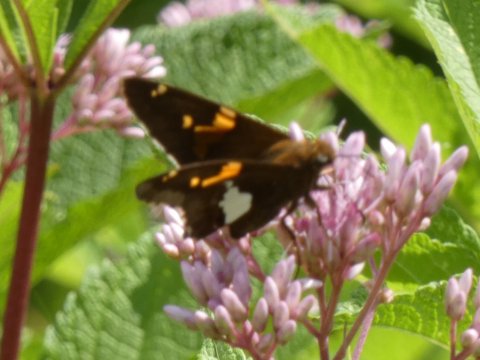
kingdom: Animalia
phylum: Arthropoda
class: Insecta
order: Lepidoptera
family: Hesperiidae
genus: Epargyreus
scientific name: Epargyreus clarus
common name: Silver-spotted Skipper
